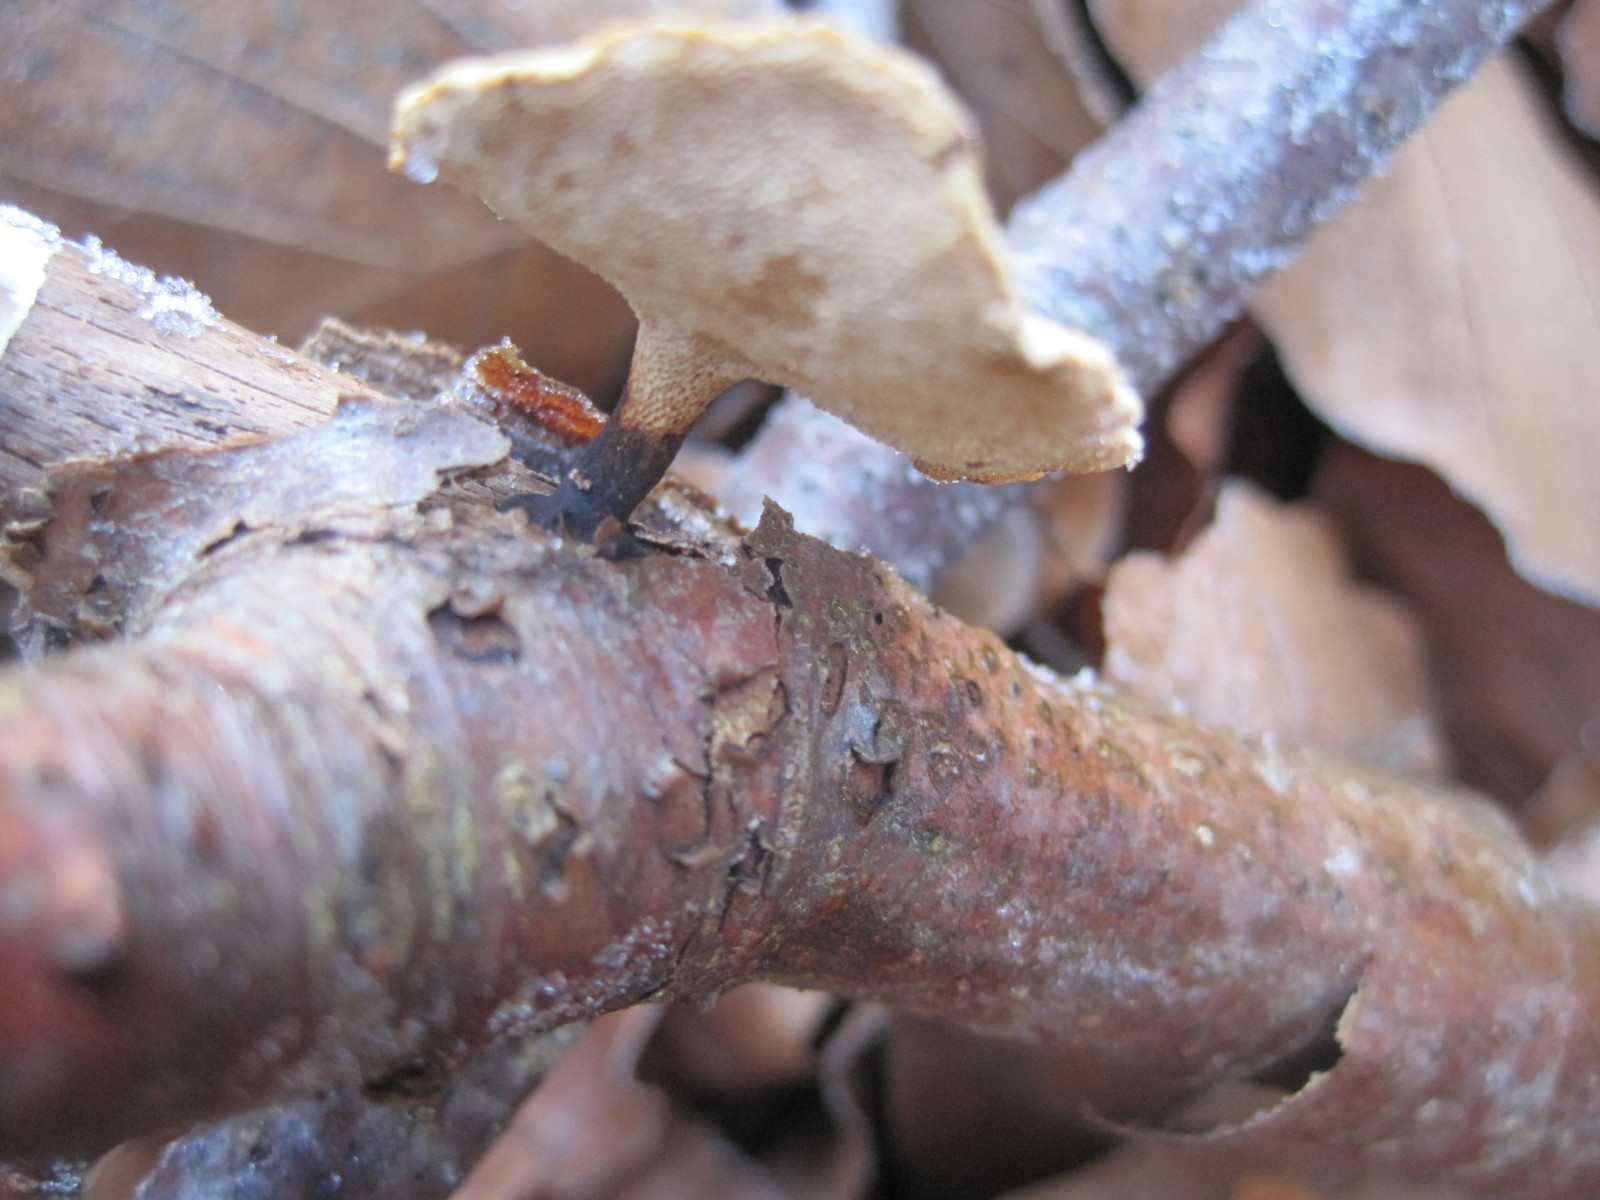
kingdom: Fungi
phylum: Basidiomycota
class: Agaricomycetes
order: Polyporales
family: Polyporaceae
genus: Cerioporus
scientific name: Cerioporus varius
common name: foranderlig stilkporesvamp
